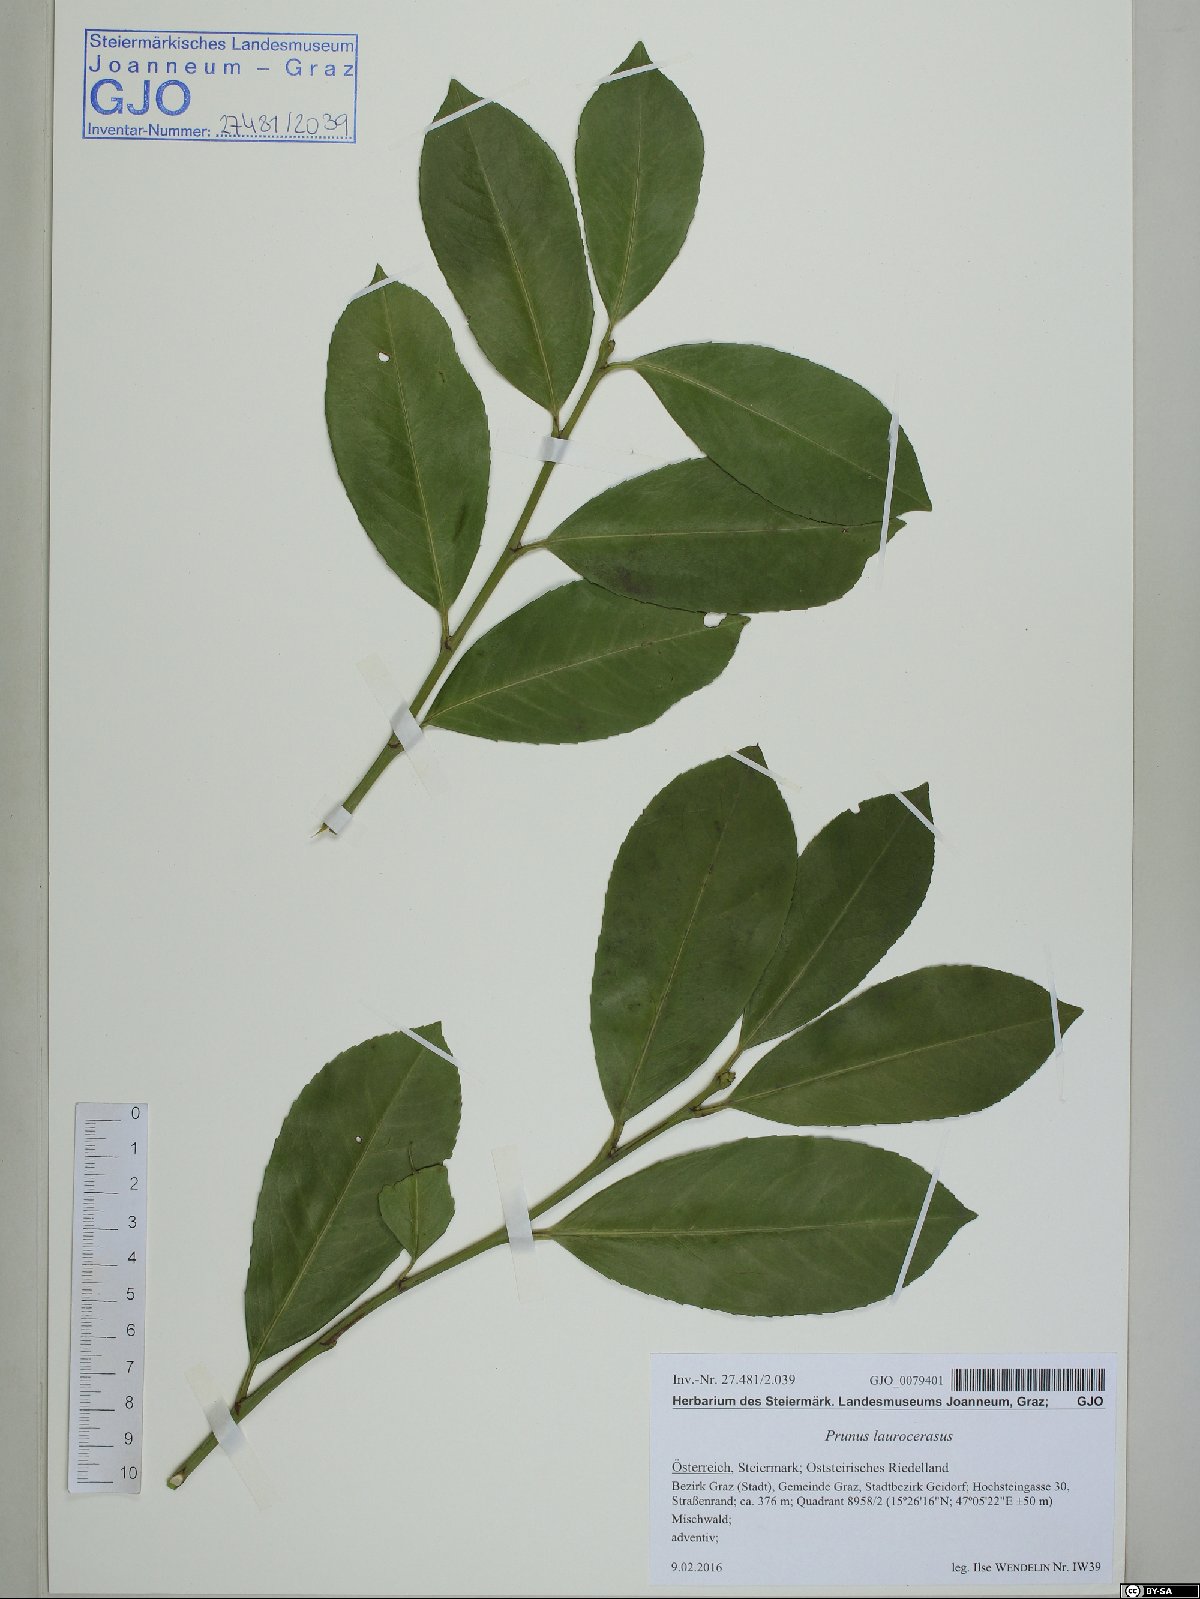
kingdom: Plantae
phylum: Tracheophyta
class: Magnoliopsida
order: Rosales
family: Rosaceae
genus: Prunus
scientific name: Prunus laurocerasus
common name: Cherry laurel
